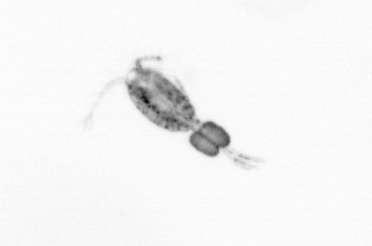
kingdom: Animalia
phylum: Arthropoda
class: Copepoda
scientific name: Copepoda
